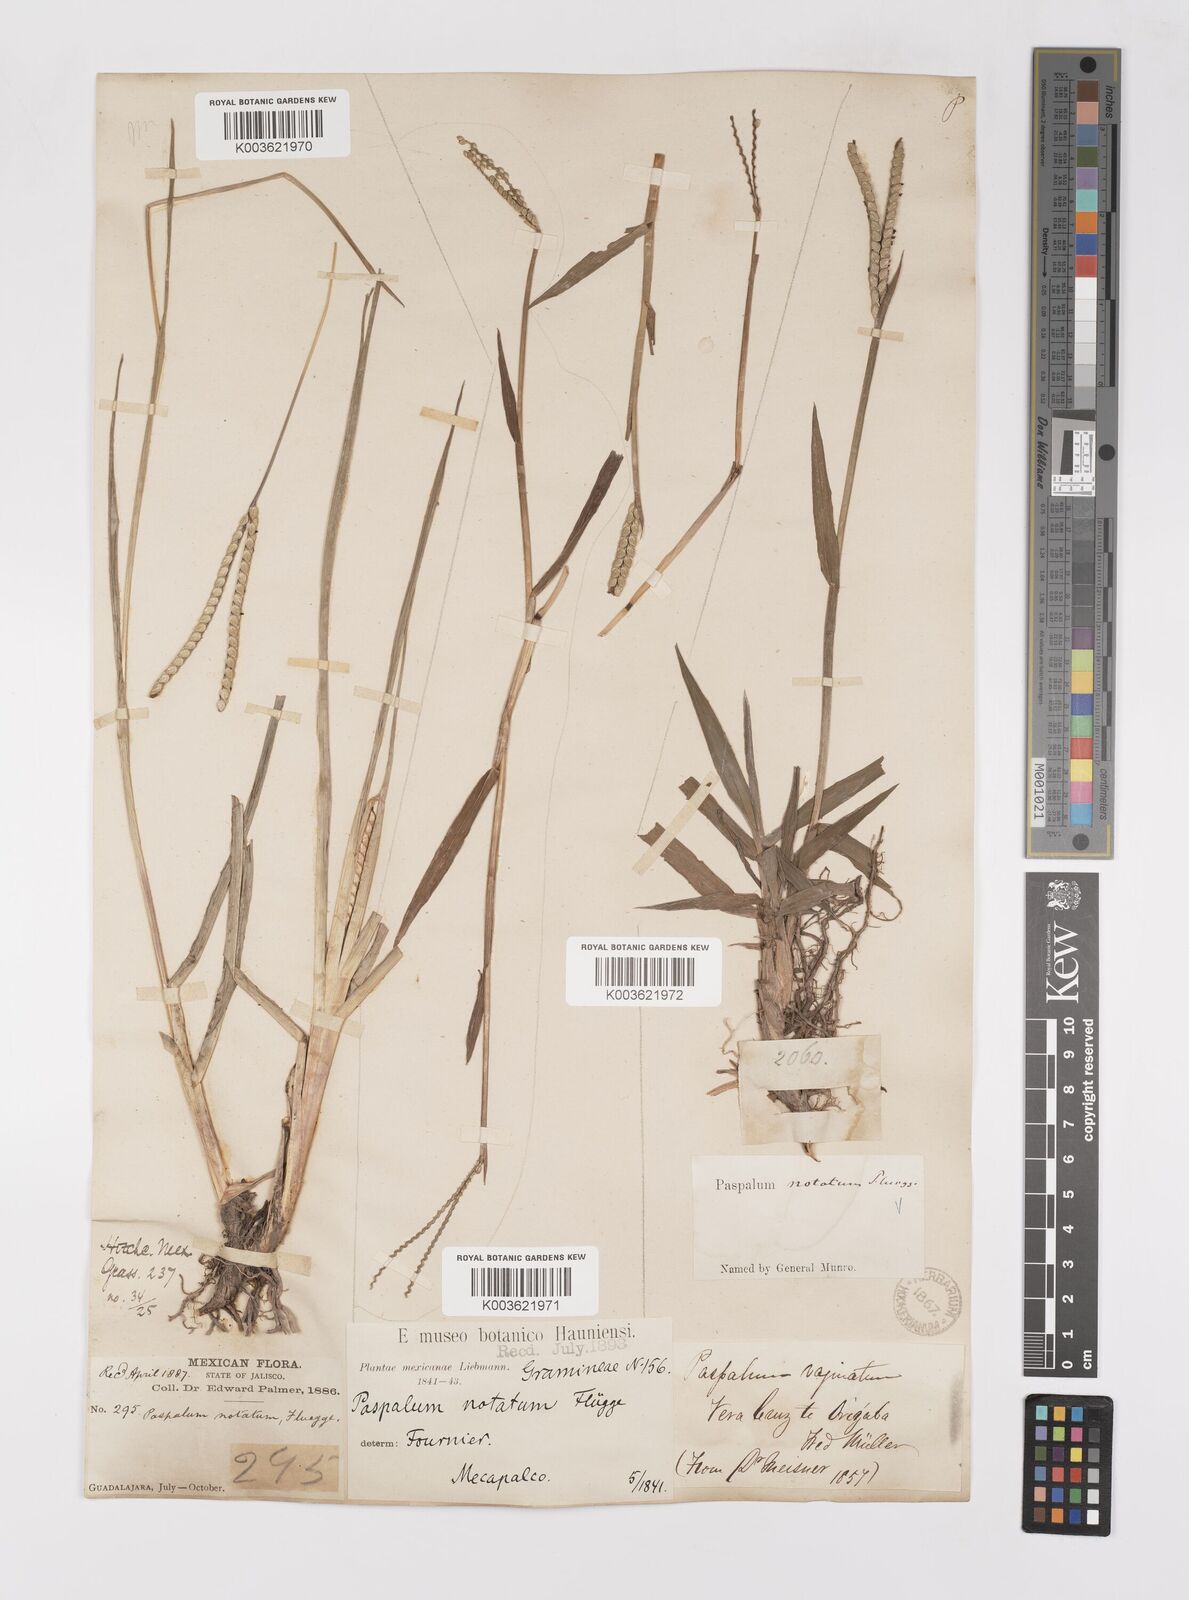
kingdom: Plantae
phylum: Tracheophyta
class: Liliopsida
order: Poales
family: Poaceae
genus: Paspalum
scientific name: Paspalum notatum
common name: Bahiagrass
